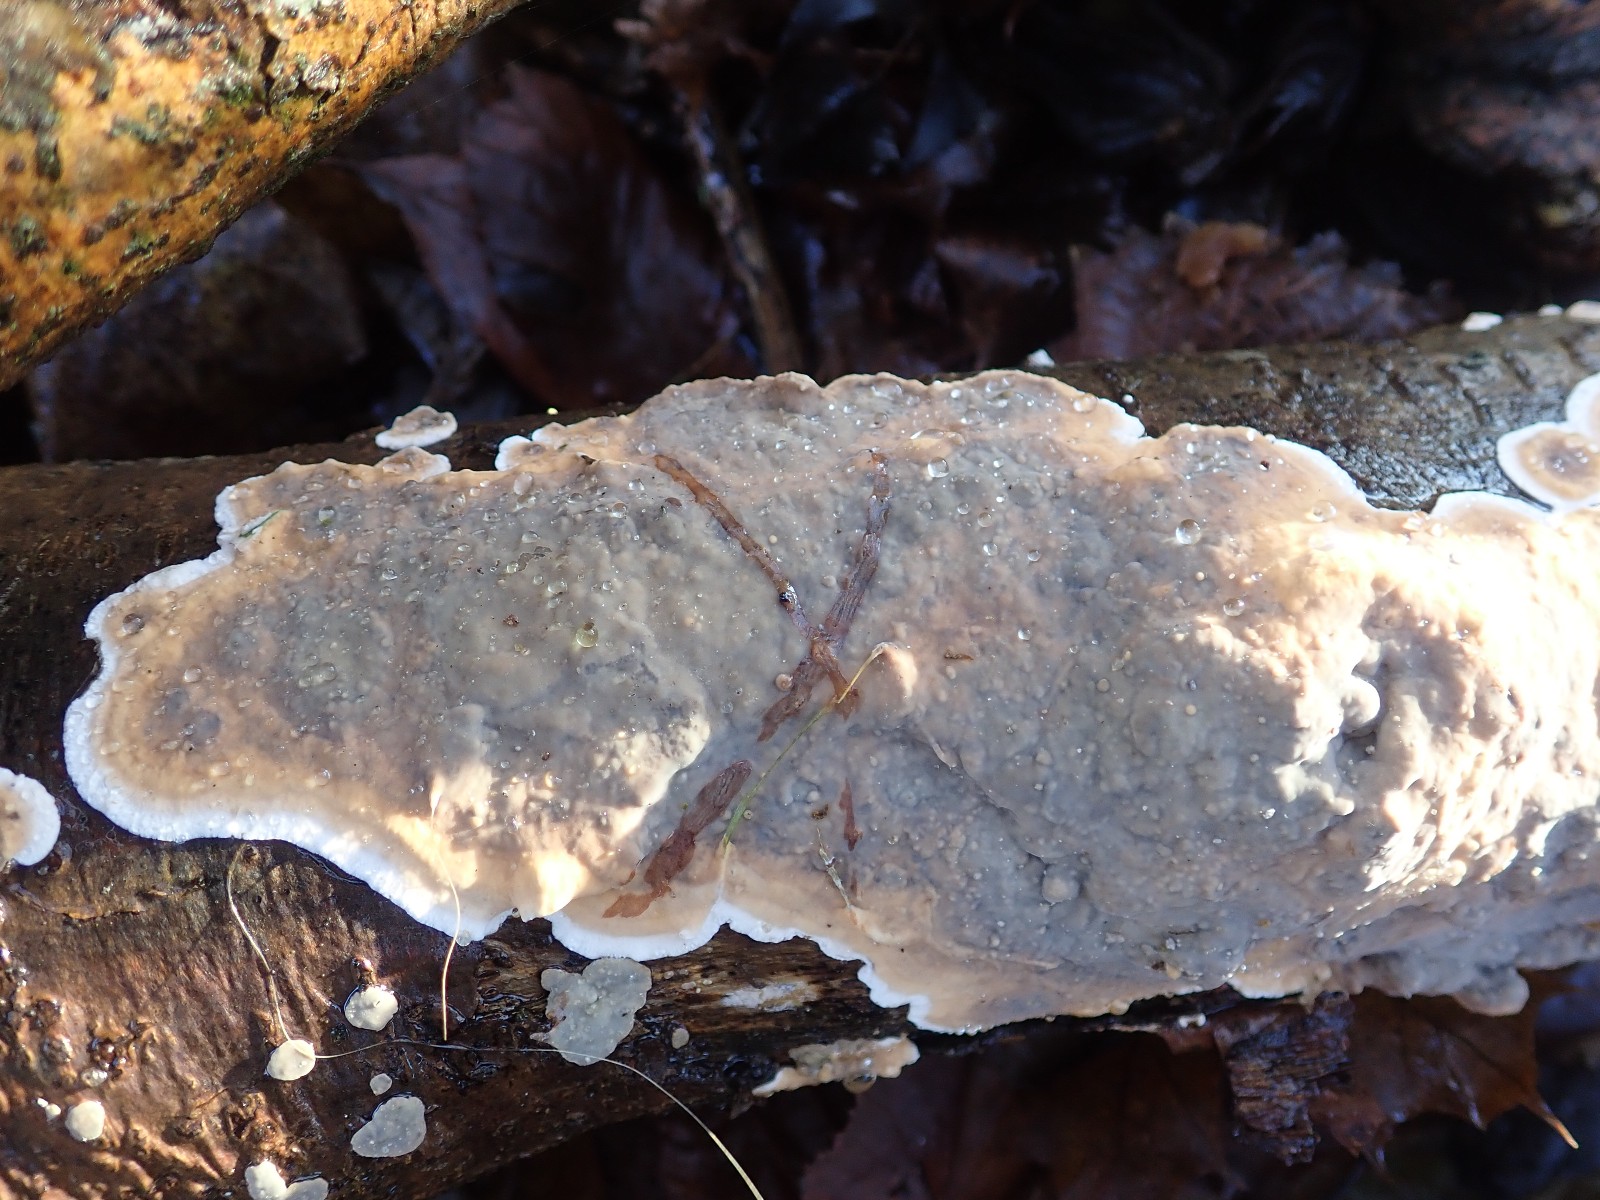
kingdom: Fungi
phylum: Basidiomycota
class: Agaricomycetes
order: Russulales
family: Stereaceae
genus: Stereum
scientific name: Stereum rugosum
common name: rynket lædersvamp
